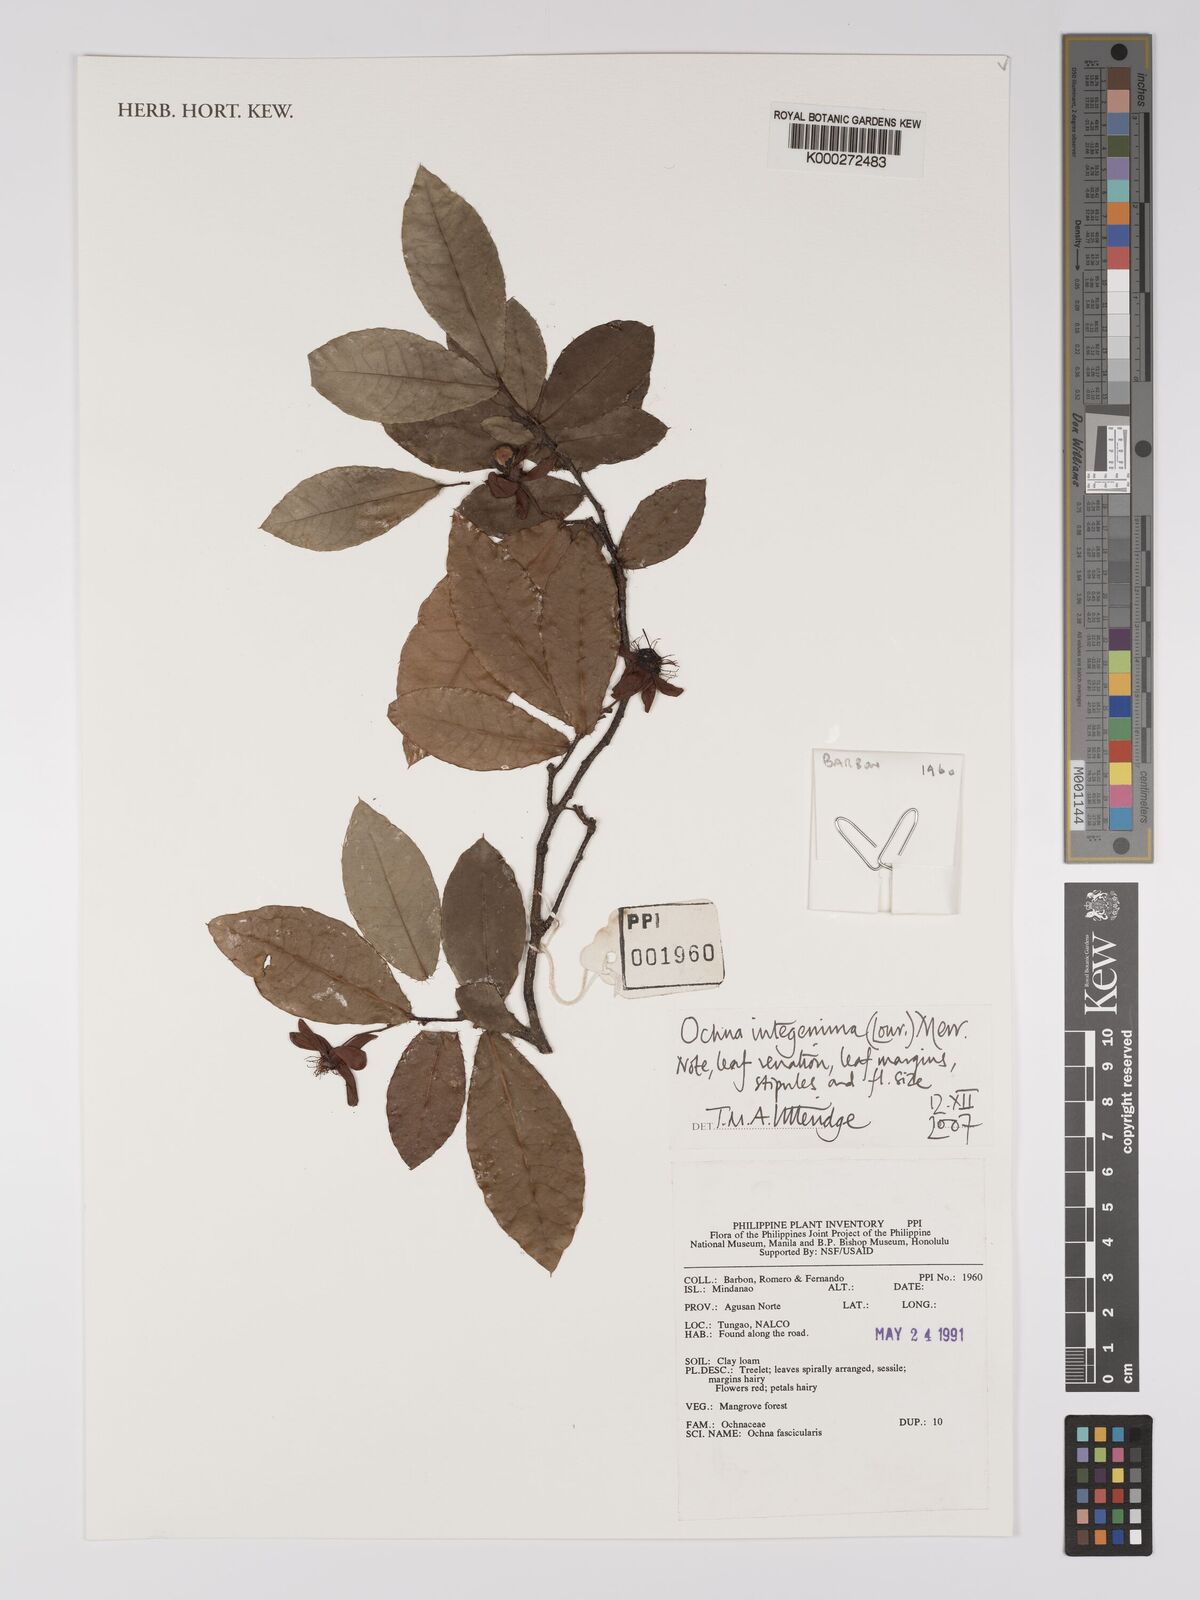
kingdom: Plantae
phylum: Tracheophyta
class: Magnoliopsida
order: Malpighiales
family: Ochnaceae
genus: Ochna
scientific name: Ochna integerrima
